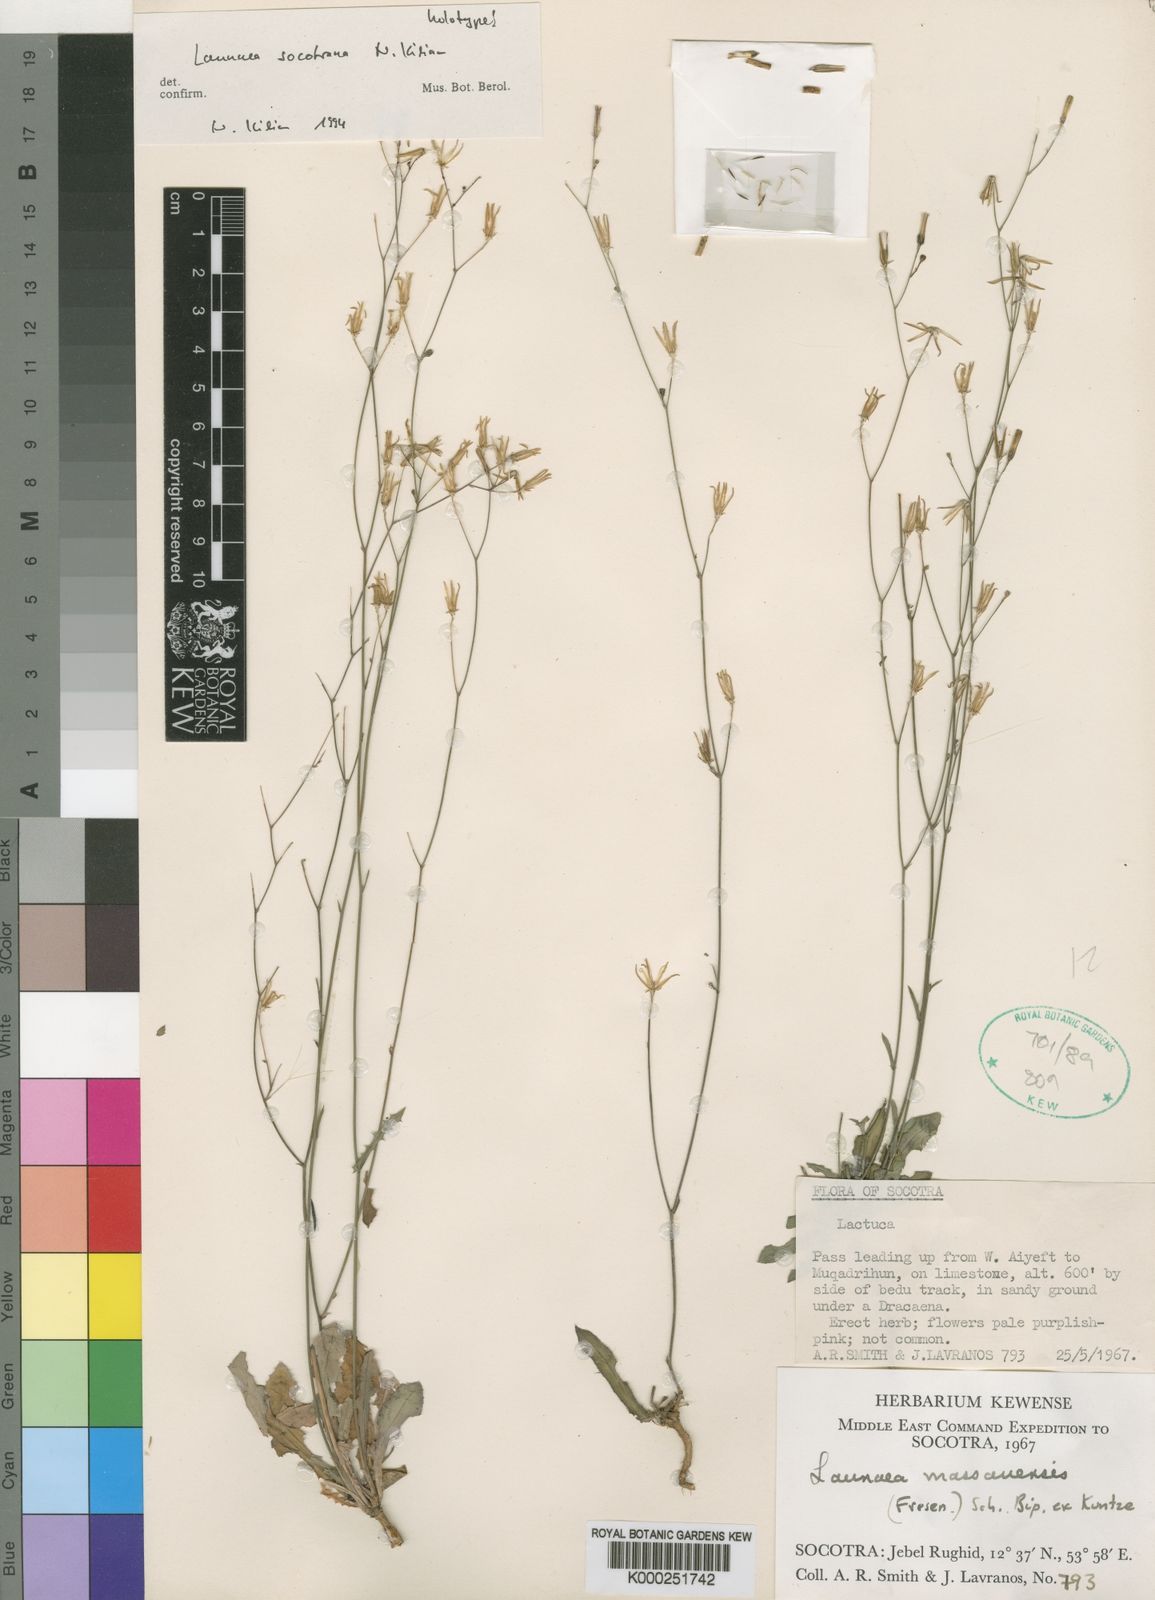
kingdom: Plantae
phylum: Tracheophyta
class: Magnoliopsida
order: Asterales
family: Asteraceae
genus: Launaea
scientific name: Launaea socotrana
